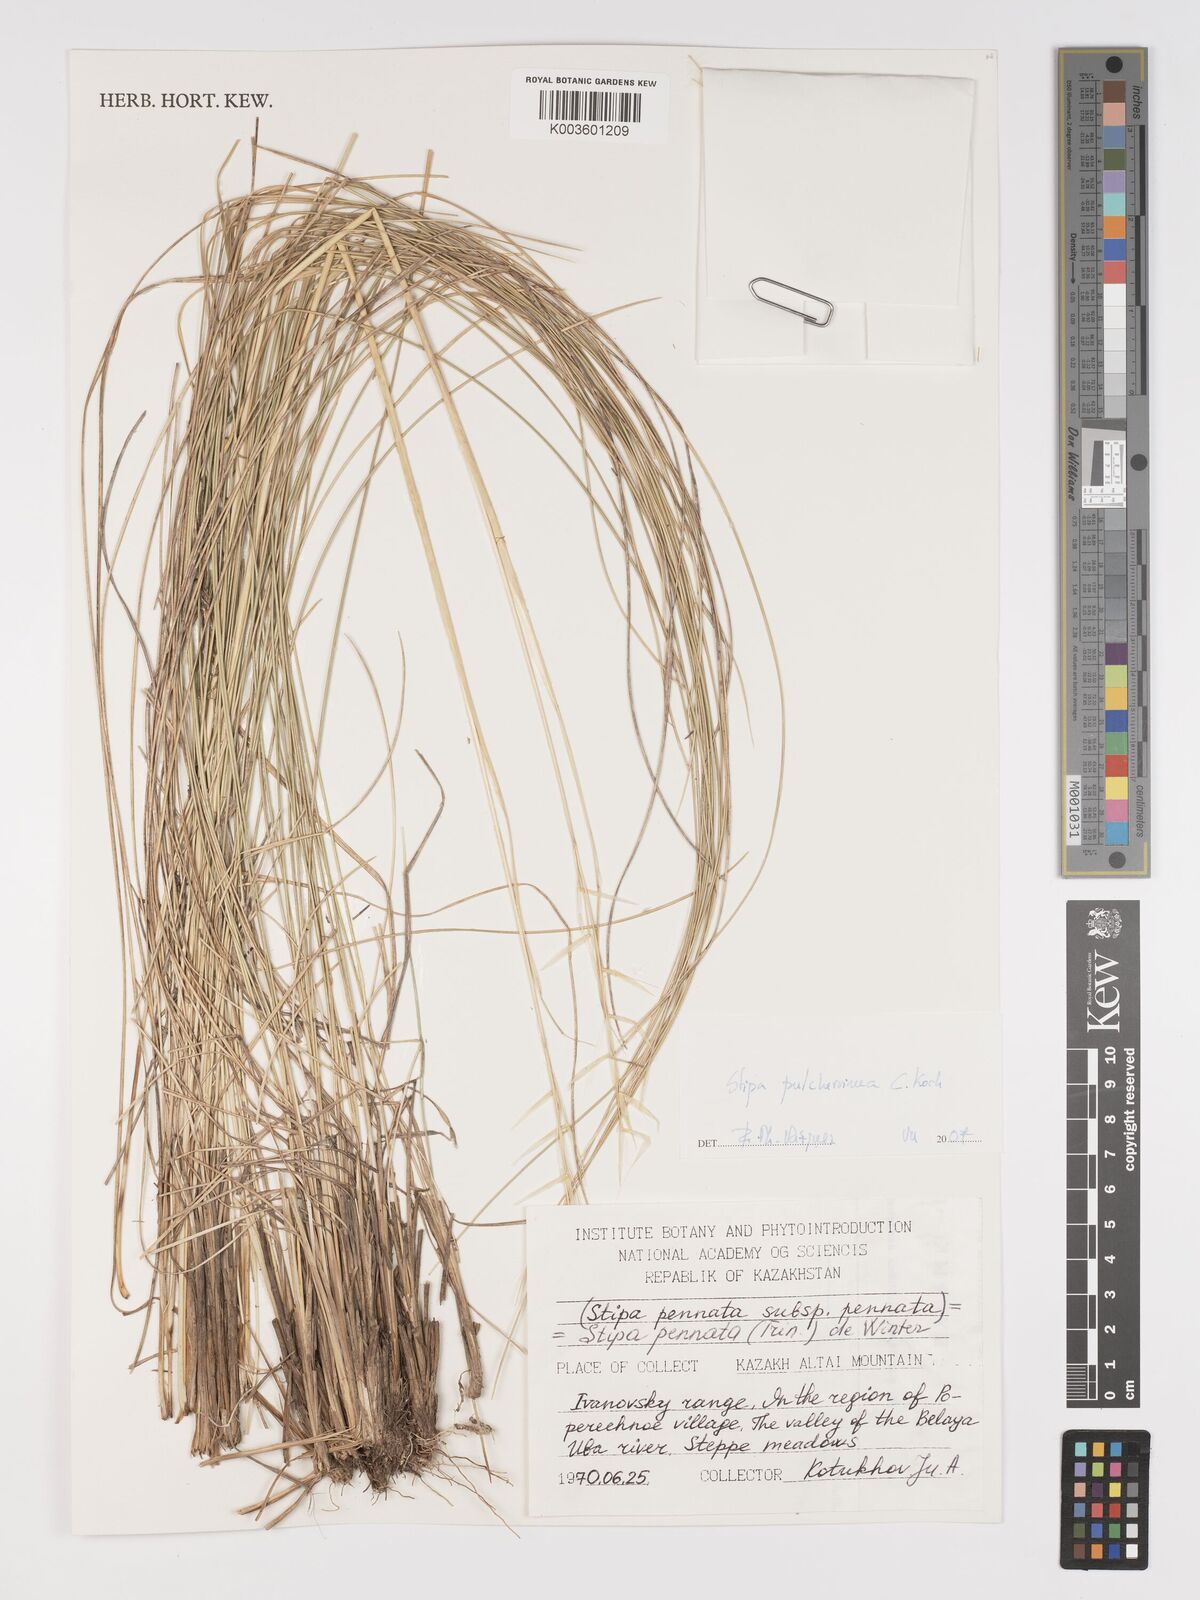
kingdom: Plantae
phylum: Tracheophyta
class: Liliopsida
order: Poales
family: Poaceae
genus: Stipa
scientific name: Stipa pulcherrima
